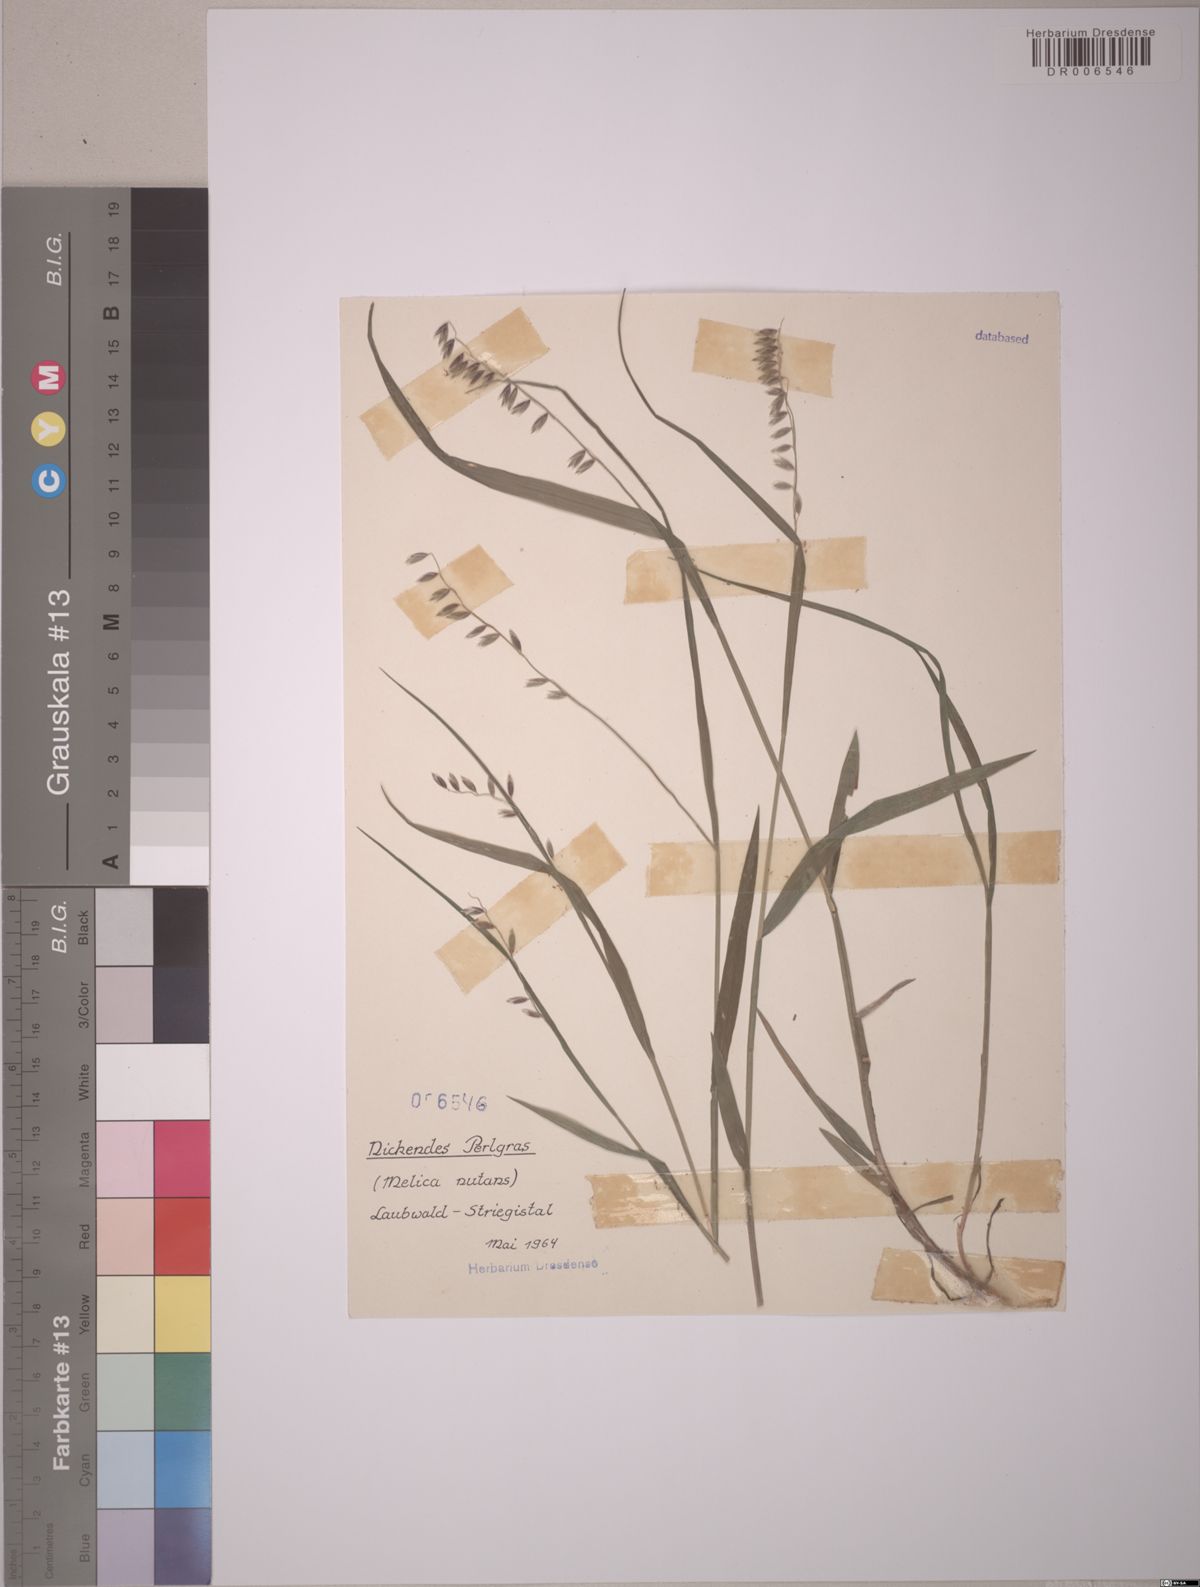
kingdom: Plantae
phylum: Tracheophyta
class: Liliopsida
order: Poales
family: Poaceae
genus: Melica
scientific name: Melica nutans
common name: Mountain melick
